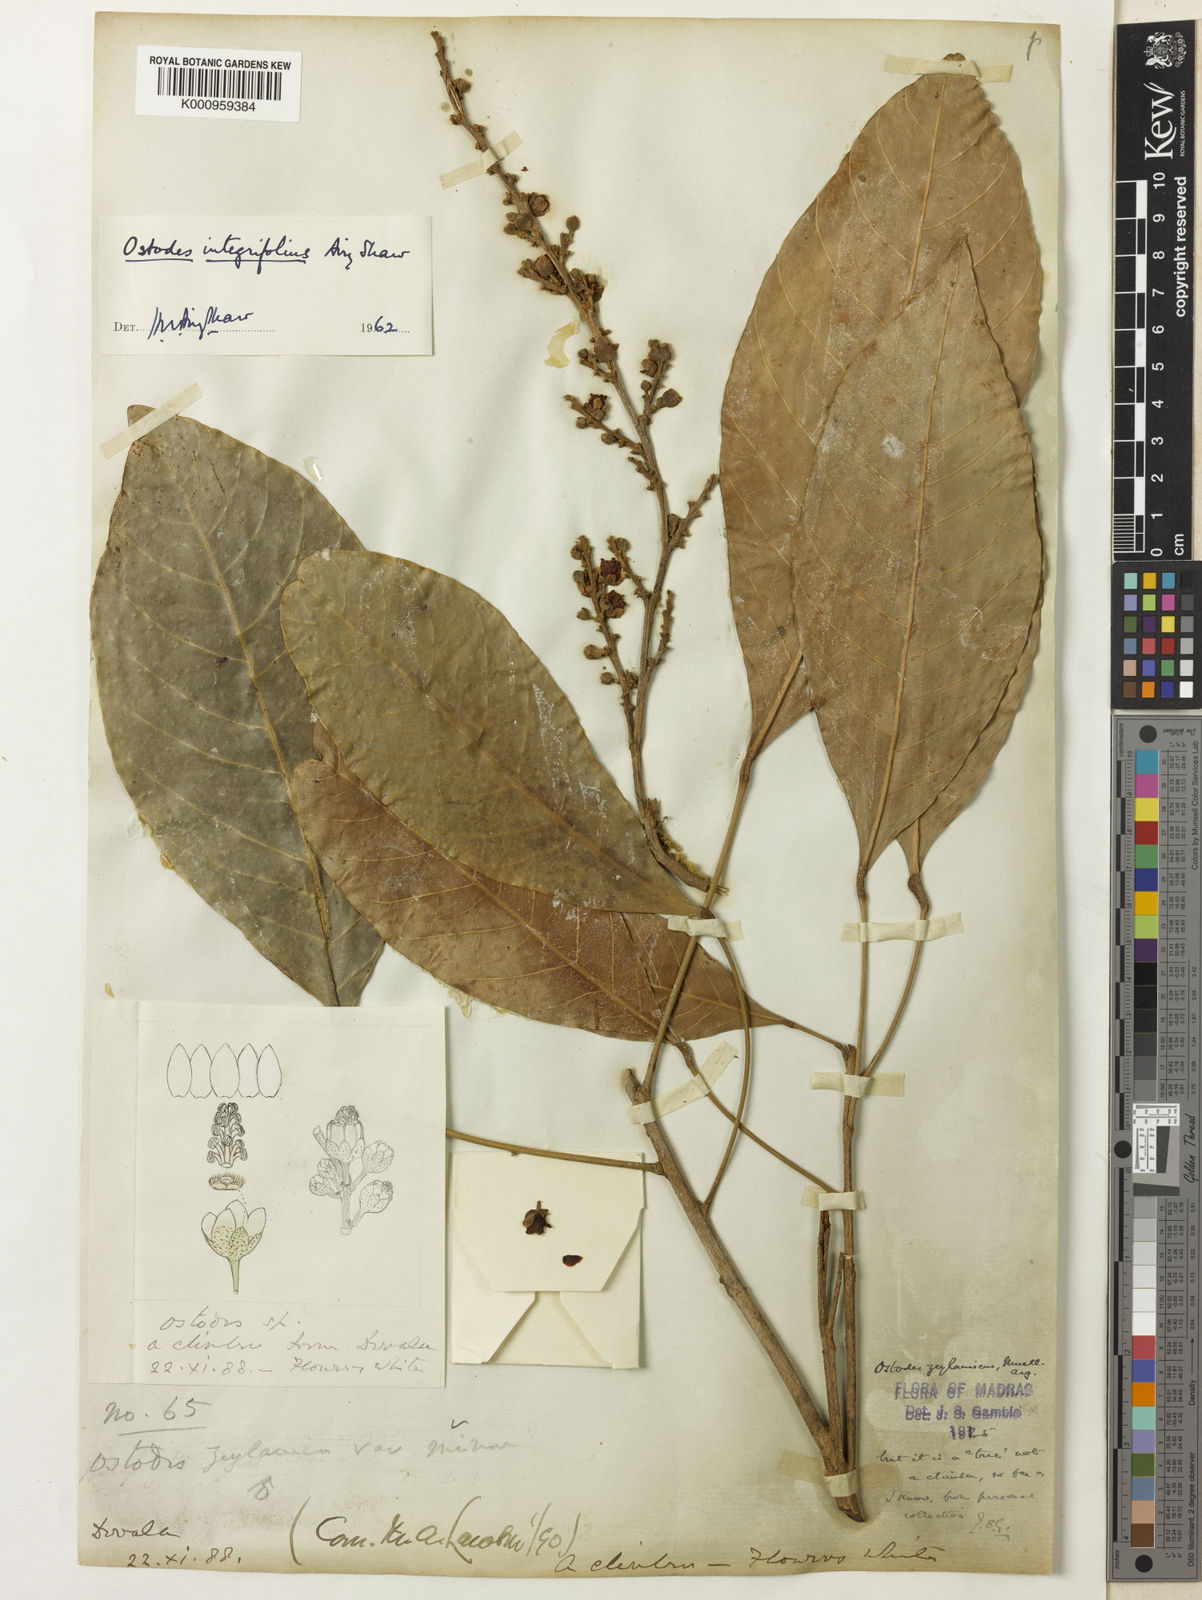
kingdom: Plantae
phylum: Tracheophyta
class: Magnoliopsida
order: Malpighiales
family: Euphorbiaceae
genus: Paracroton
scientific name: Paracroton integrifolius
